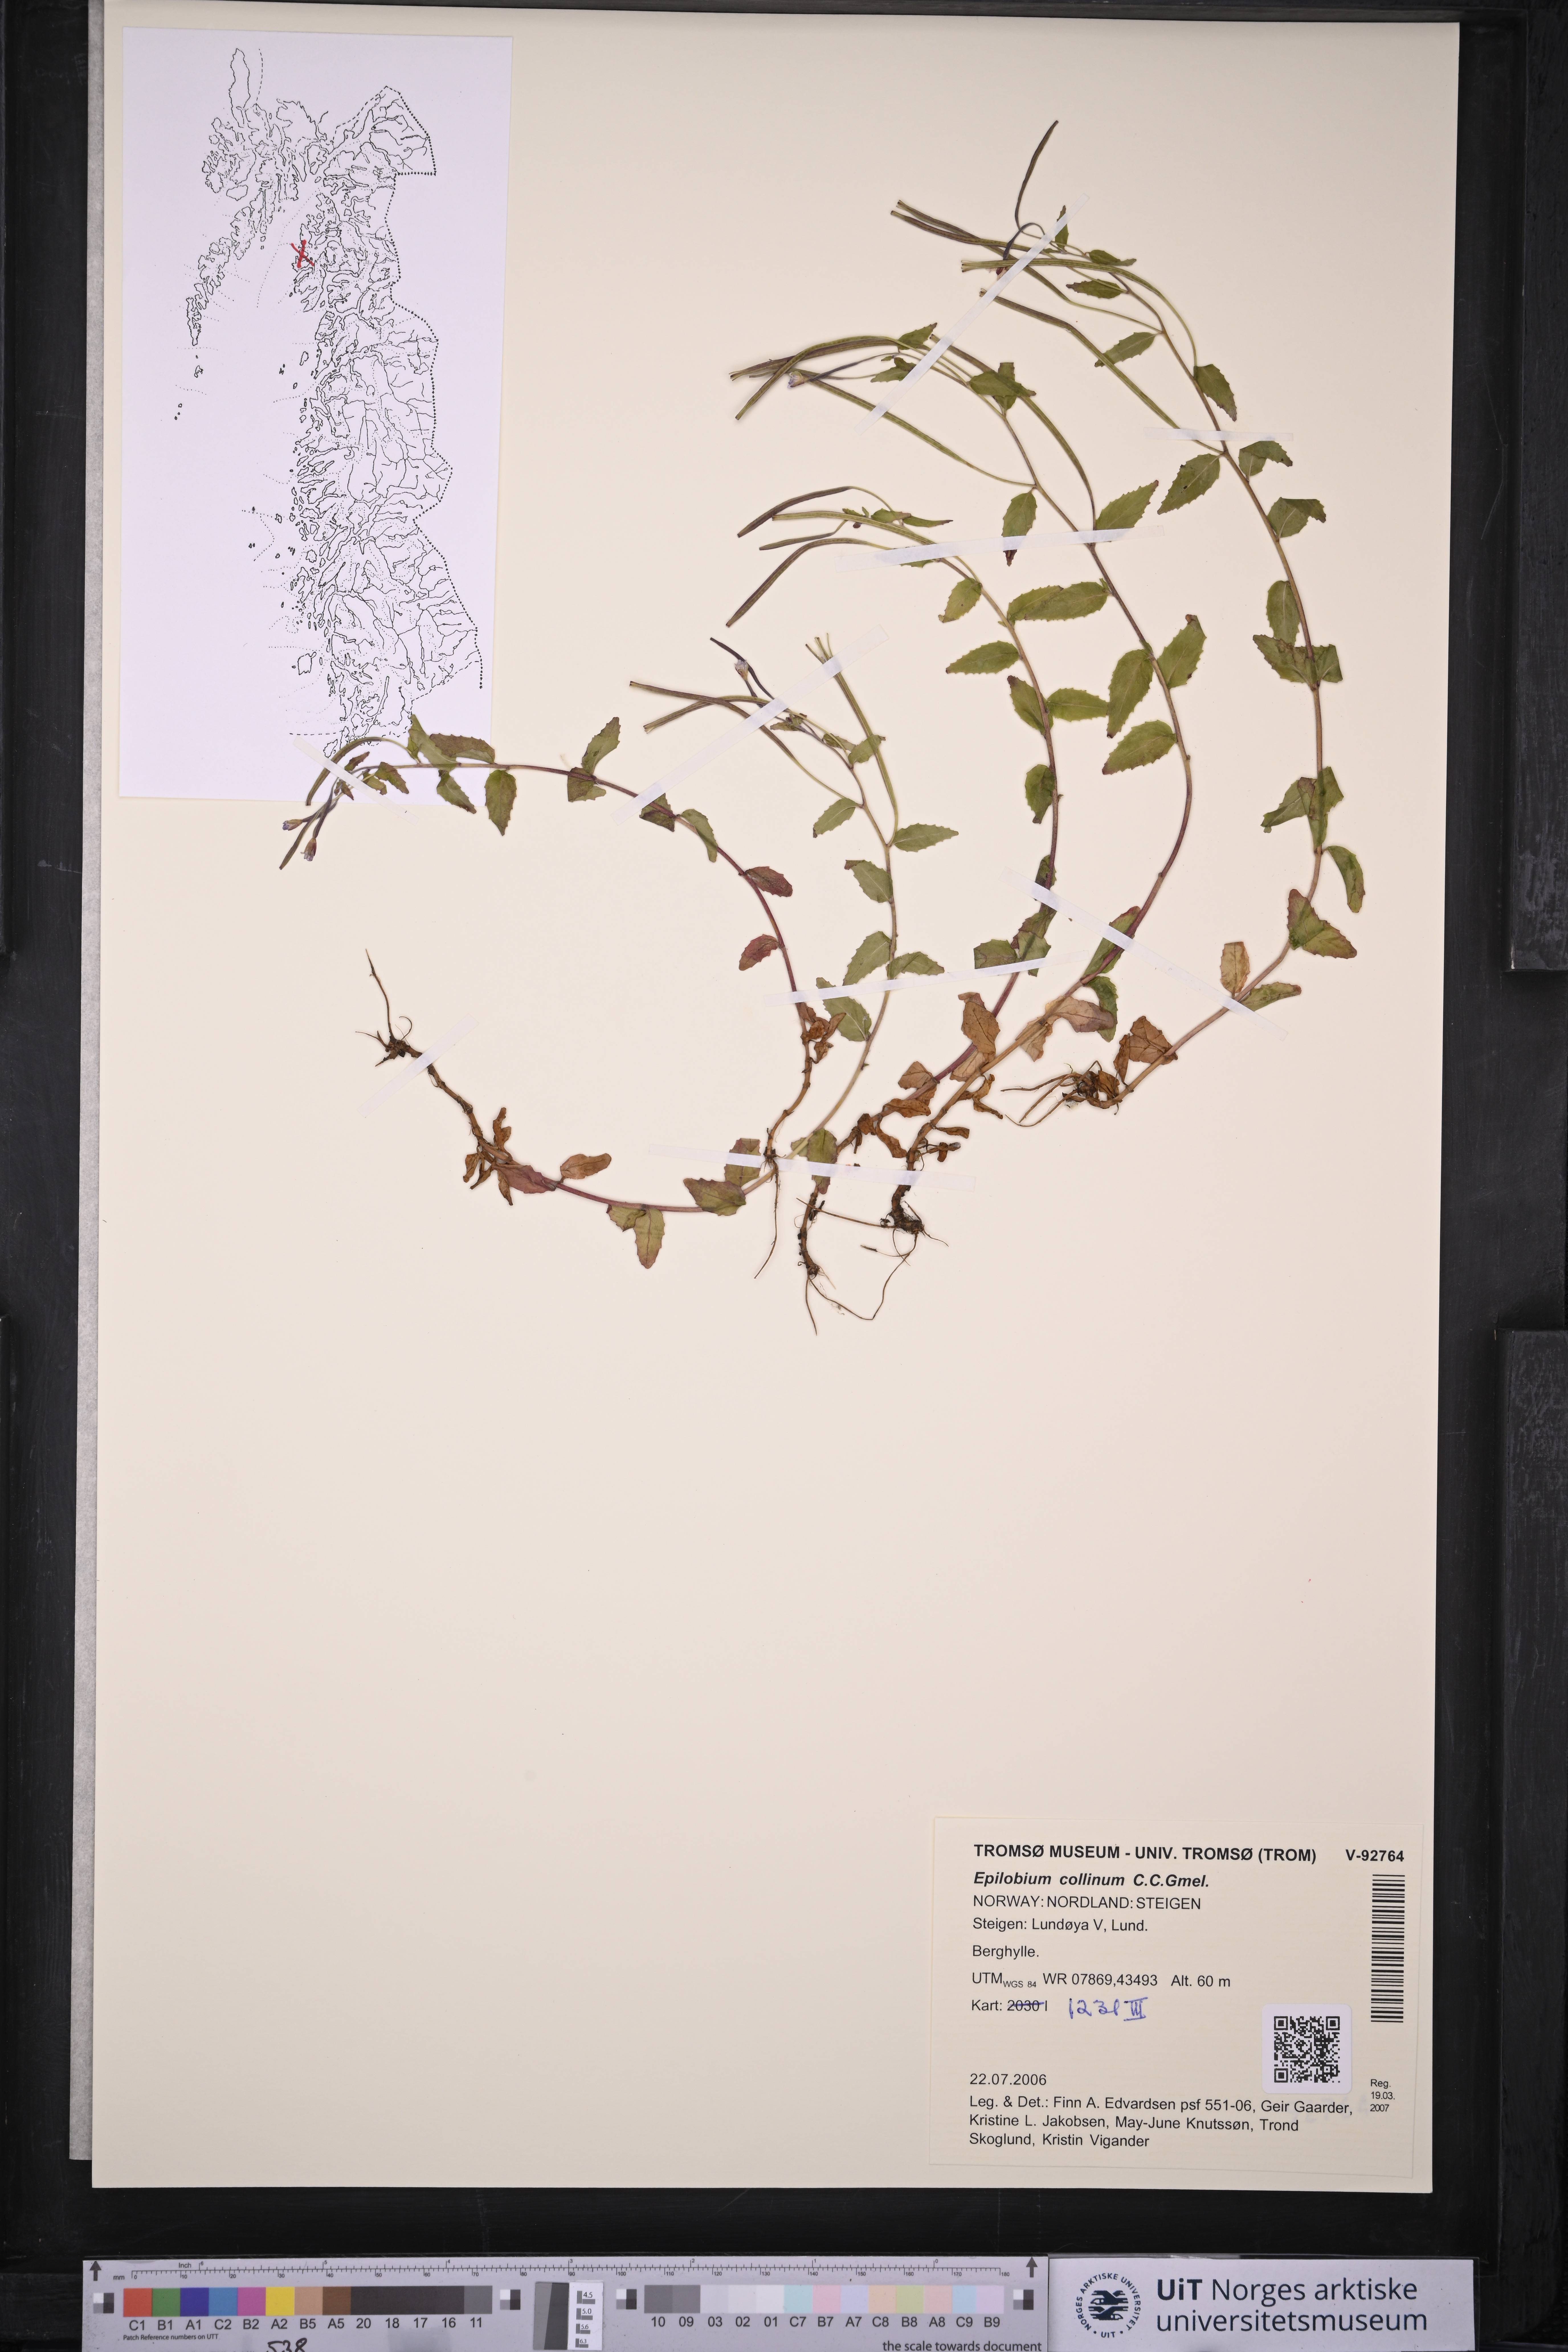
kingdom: Plantae
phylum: Tracheophyta
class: Magnoliopsida
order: Myrtales
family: Onagraceae
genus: Epilobium
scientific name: Epilobium collinum
